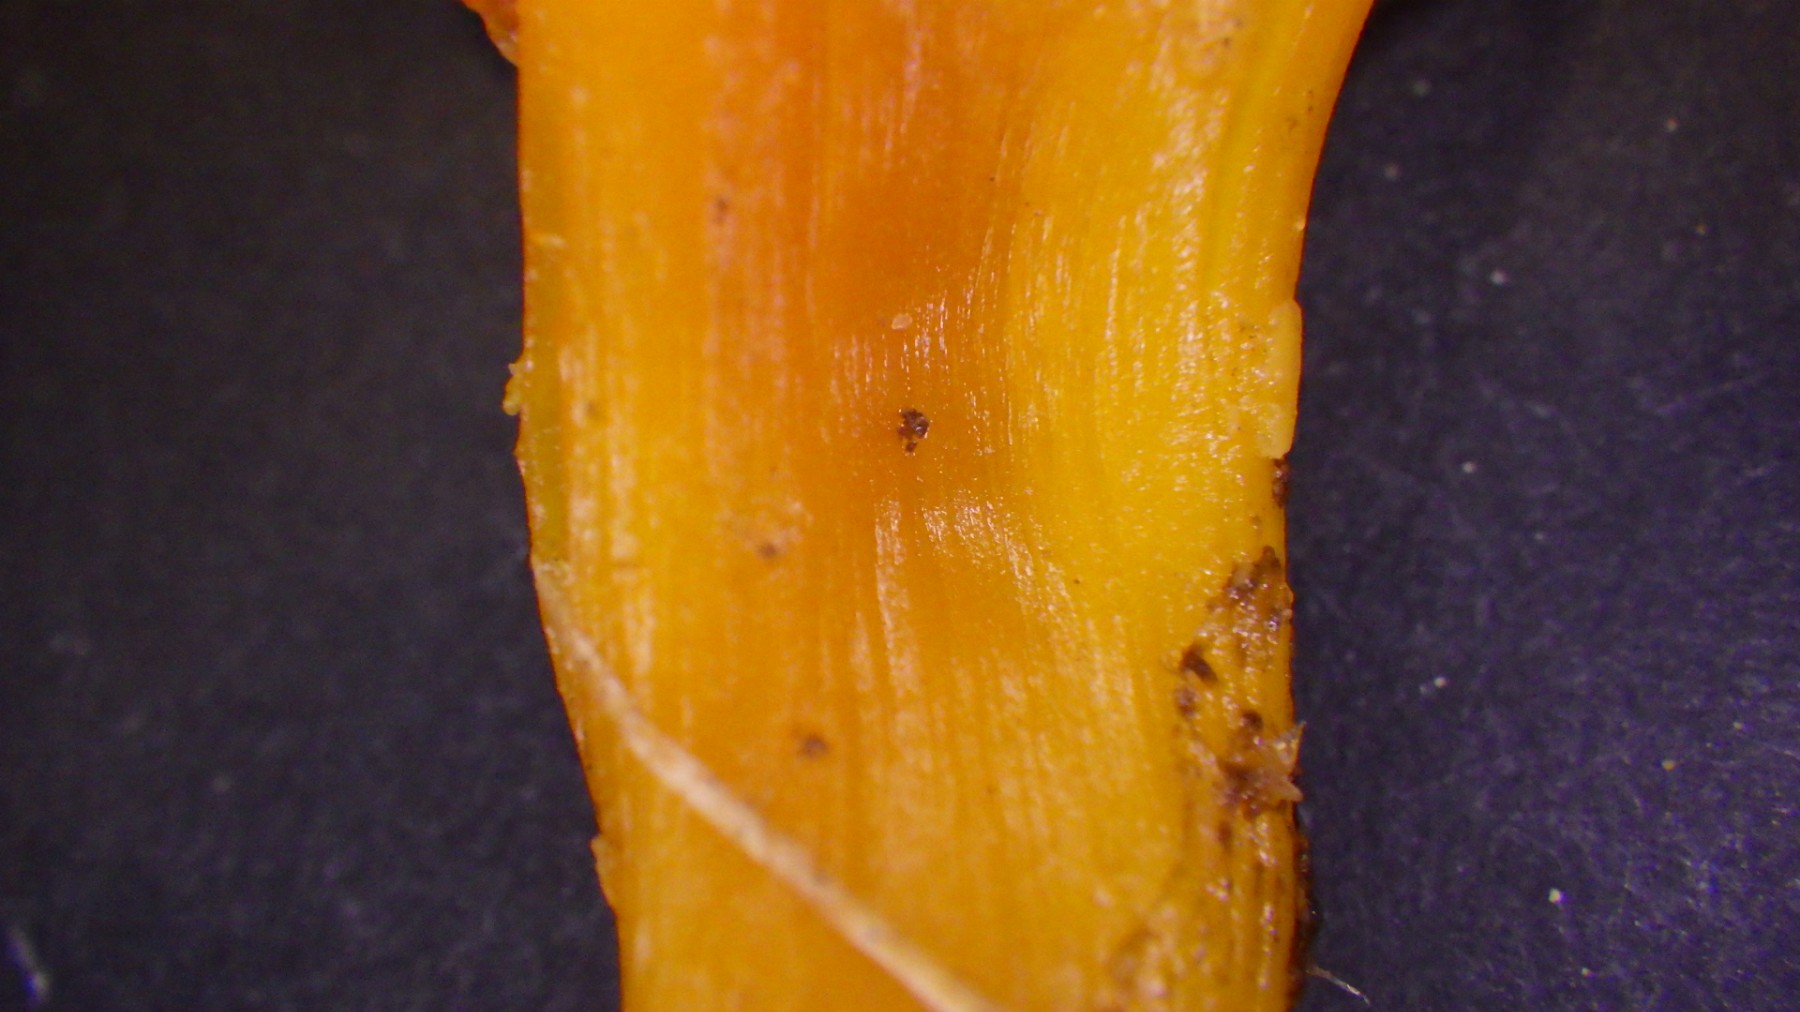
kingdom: Fungi
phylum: Basidiomycota
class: Agaricomycetes
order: Agaricales
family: Hygrophoraceae
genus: Hygrocybe
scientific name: Hygrocybe punicea
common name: skarlagen-vokshat
